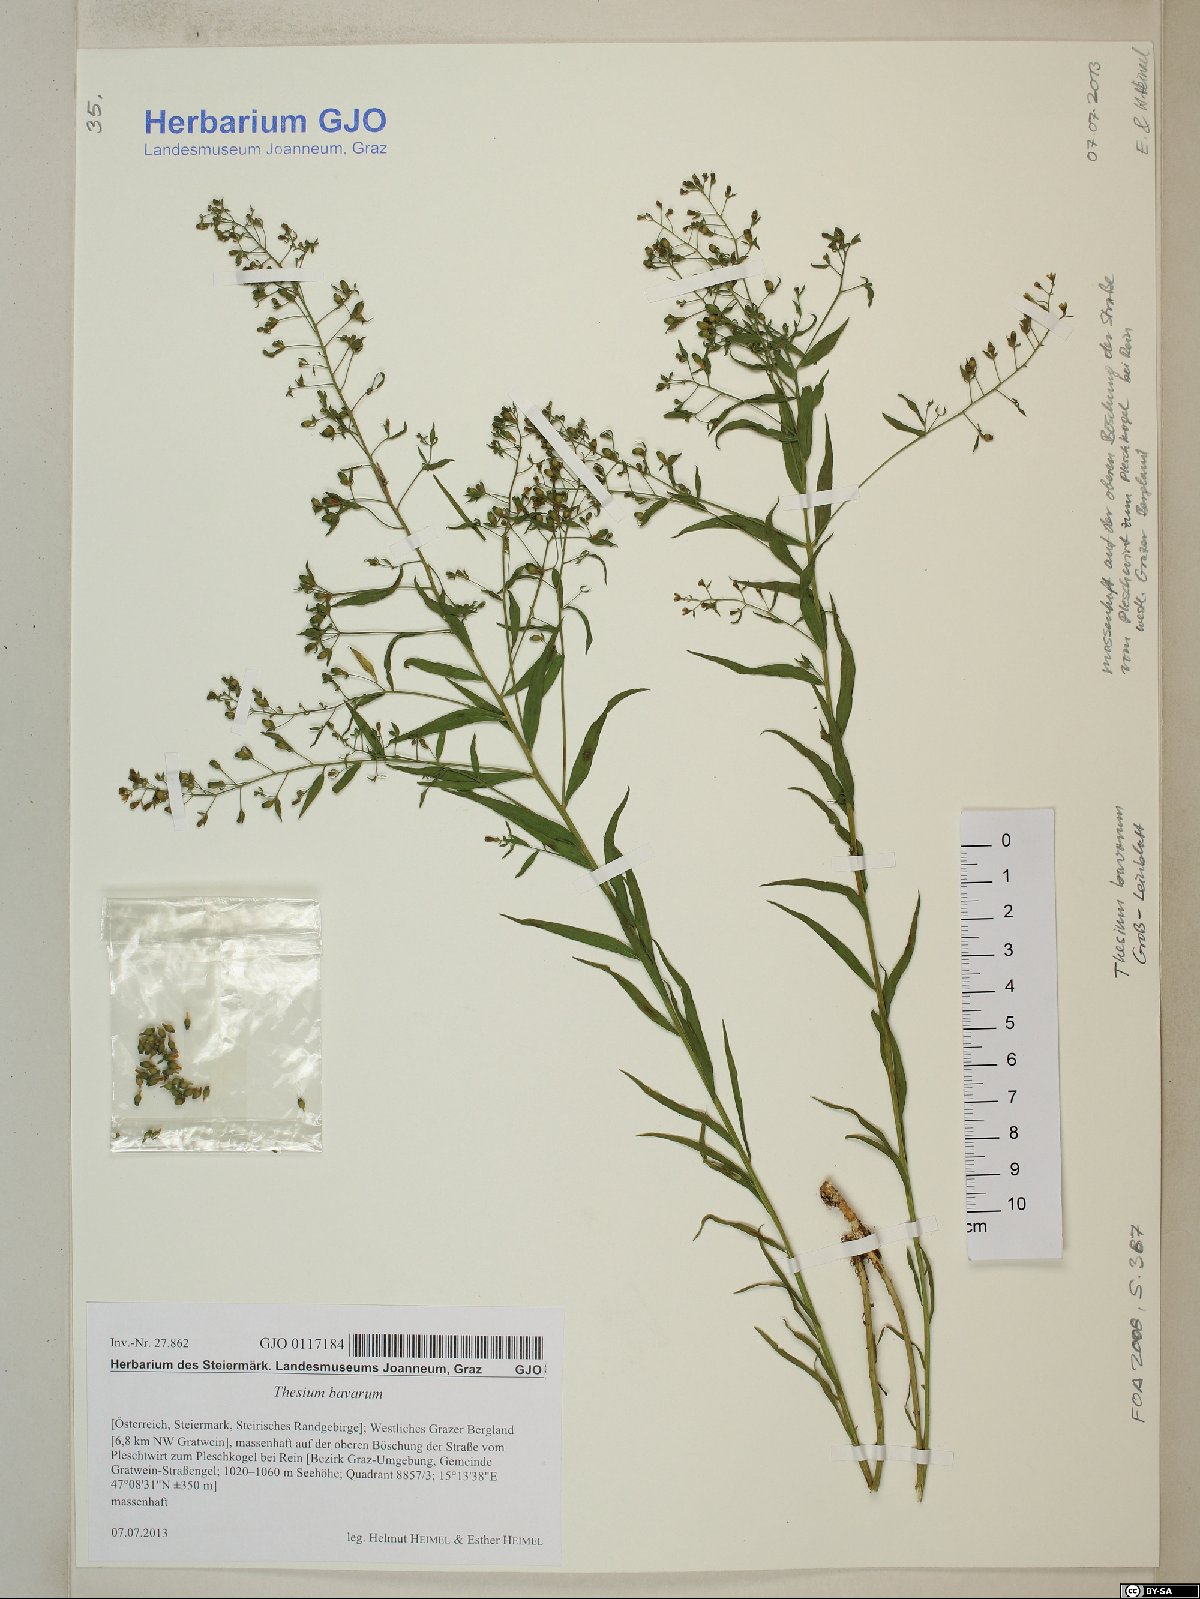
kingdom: Plantae
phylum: Tracheophyta
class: Magnoliopsida
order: Santalales
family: Thesiaceae
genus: Thesium
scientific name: Thesium bavarum
